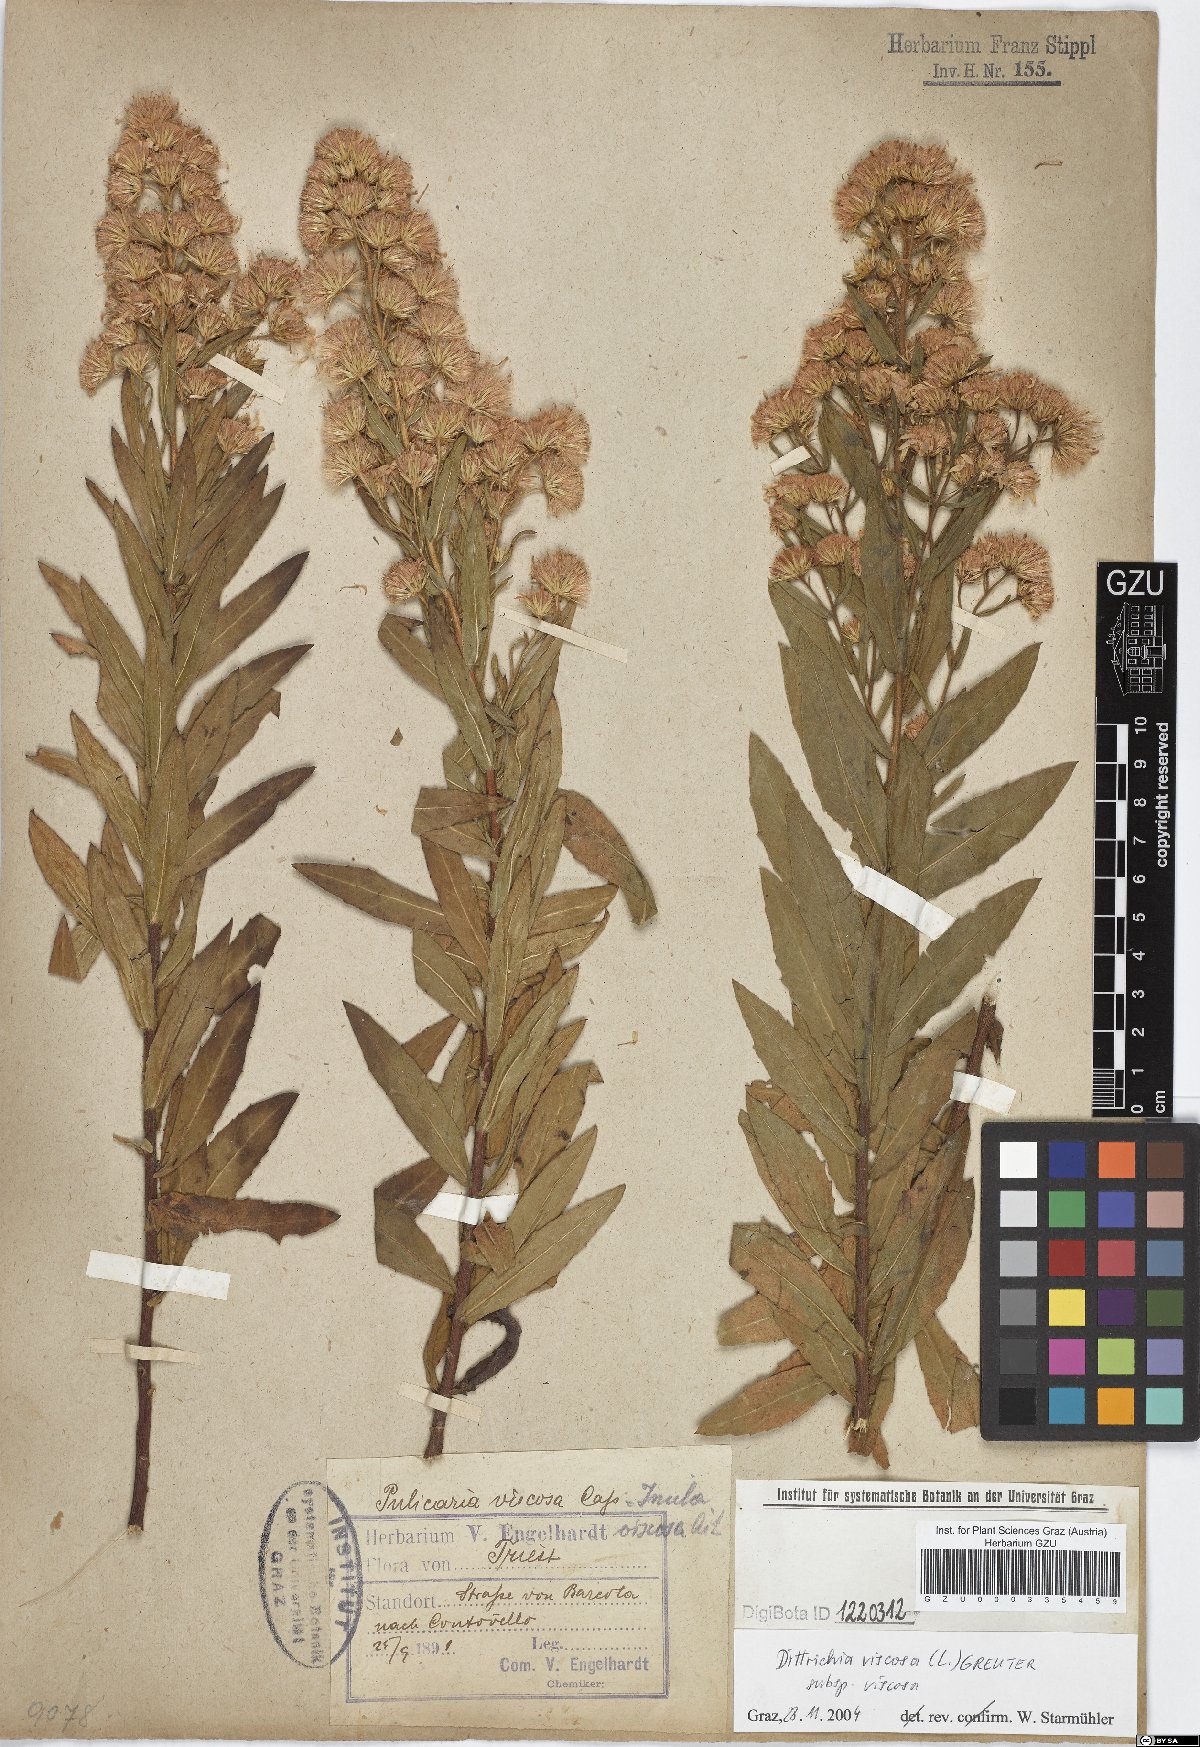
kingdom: Plantae
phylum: Tracheophyta
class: Magnoliopsida
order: Asterales
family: Asteraceae
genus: Dittrichia
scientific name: Dittrichia viscosa
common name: Woody fleabane
